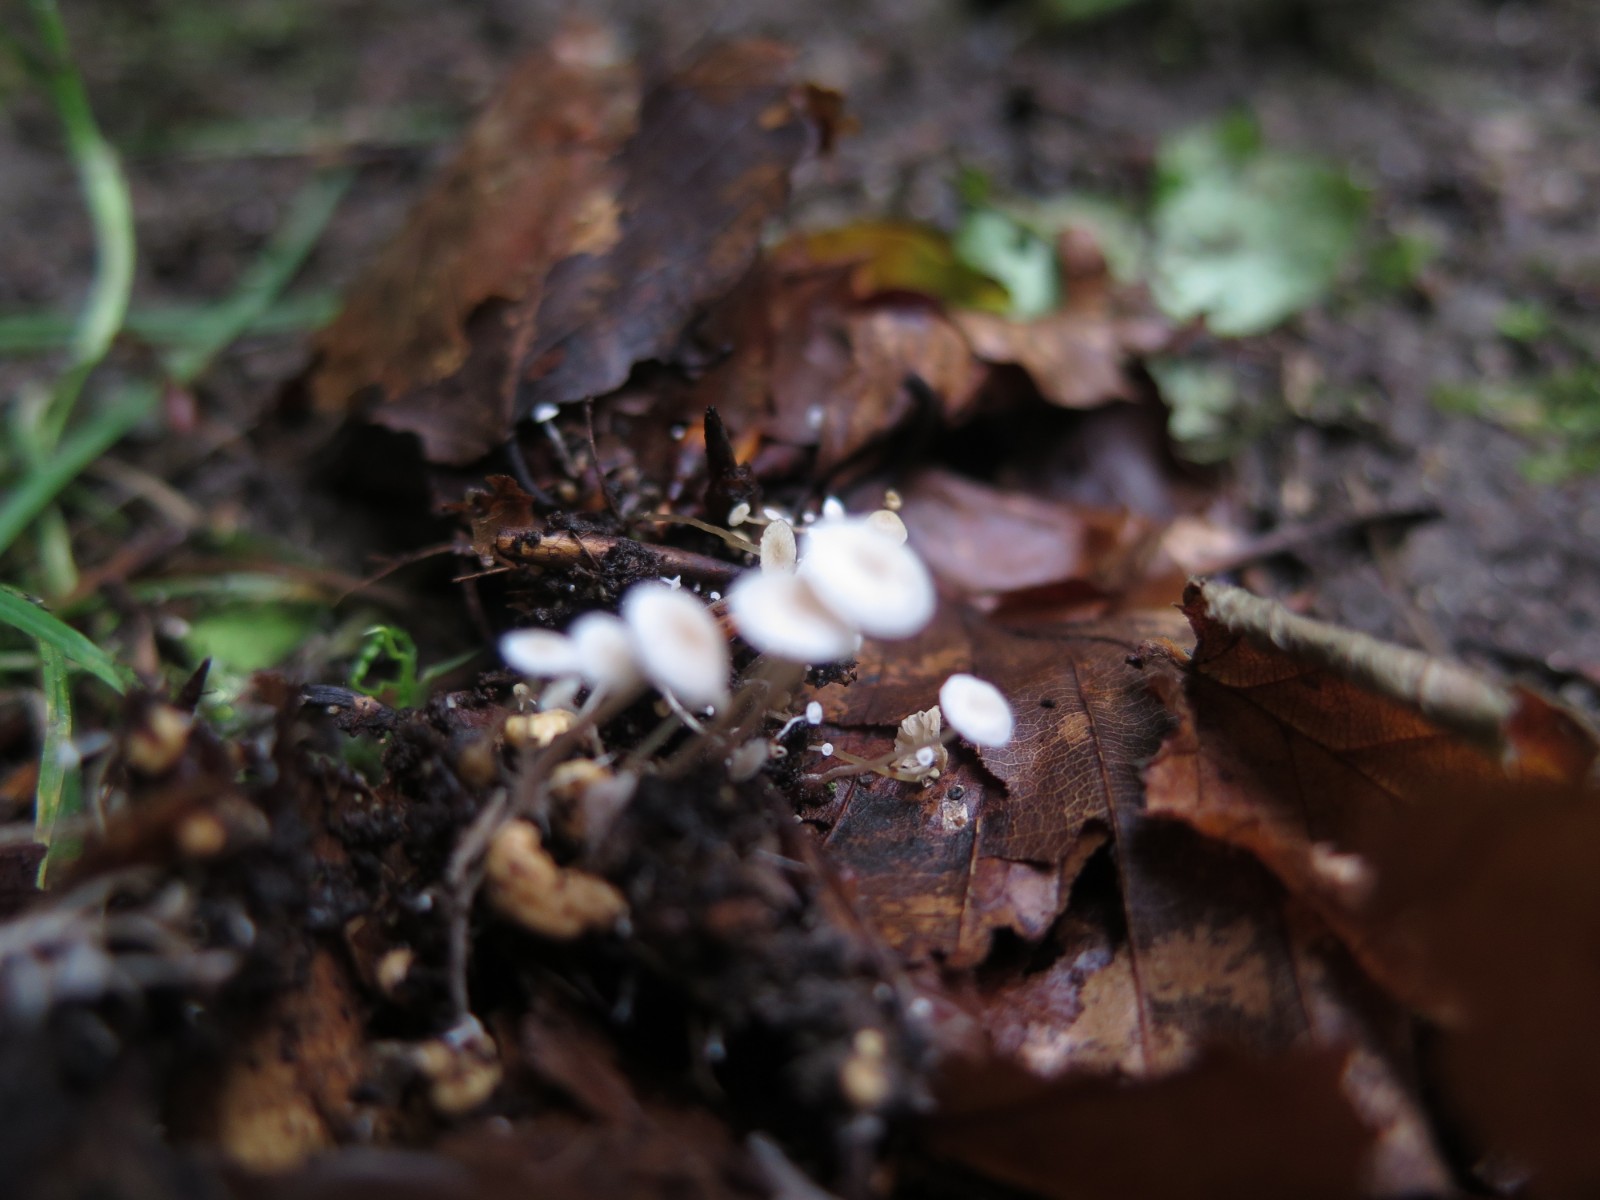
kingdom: Fungi
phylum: Basidiomycota
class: Agaricomycetes
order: Agaricales
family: Tricholomataceae
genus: Collybia
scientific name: Collybia cookei
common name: gulknoldet lighat
